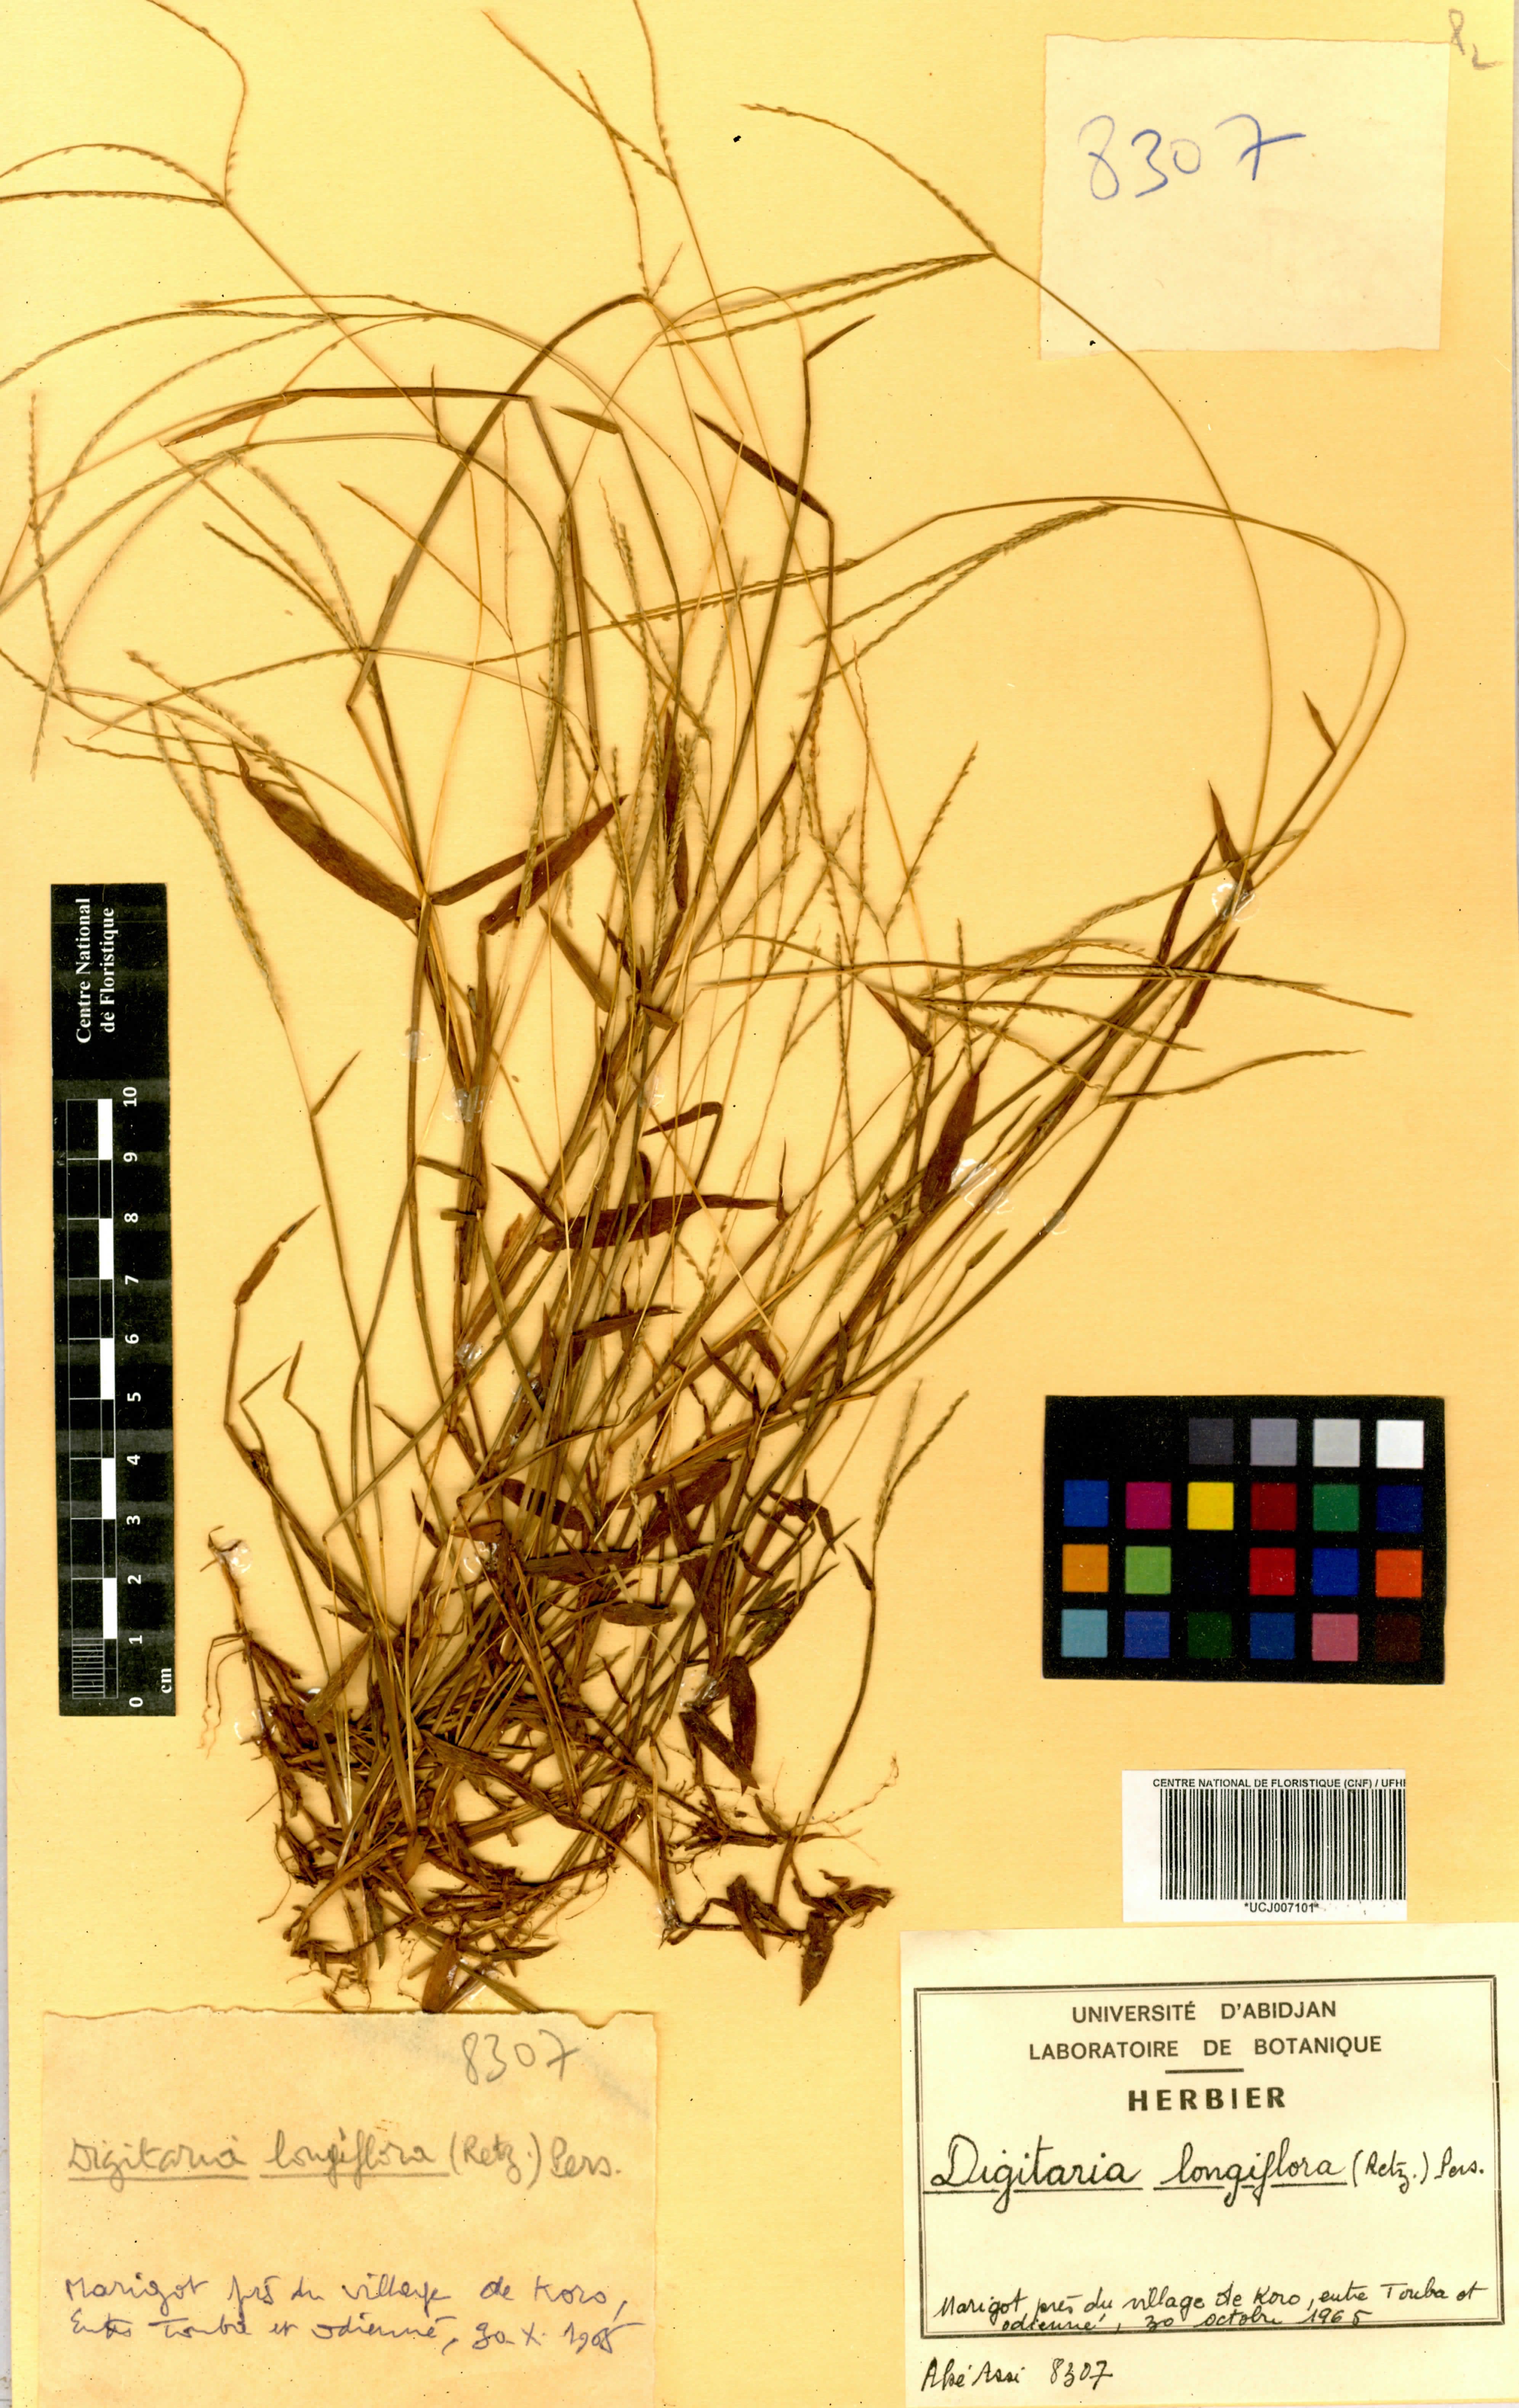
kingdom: Plantae
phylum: Tracheophyta
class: Liliopsida
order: Poales
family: Poaceae
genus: Digitaria
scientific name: Digitaria longiflora
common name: Wire crabgrass
